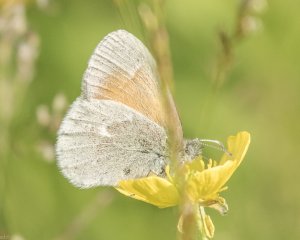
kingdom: Animalia
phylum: Arthropoda
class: Insecta
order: Lepidoptera
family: Nymphalidae
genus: Coenonympha
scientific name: Coenonympha tullia
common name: Large Heath
